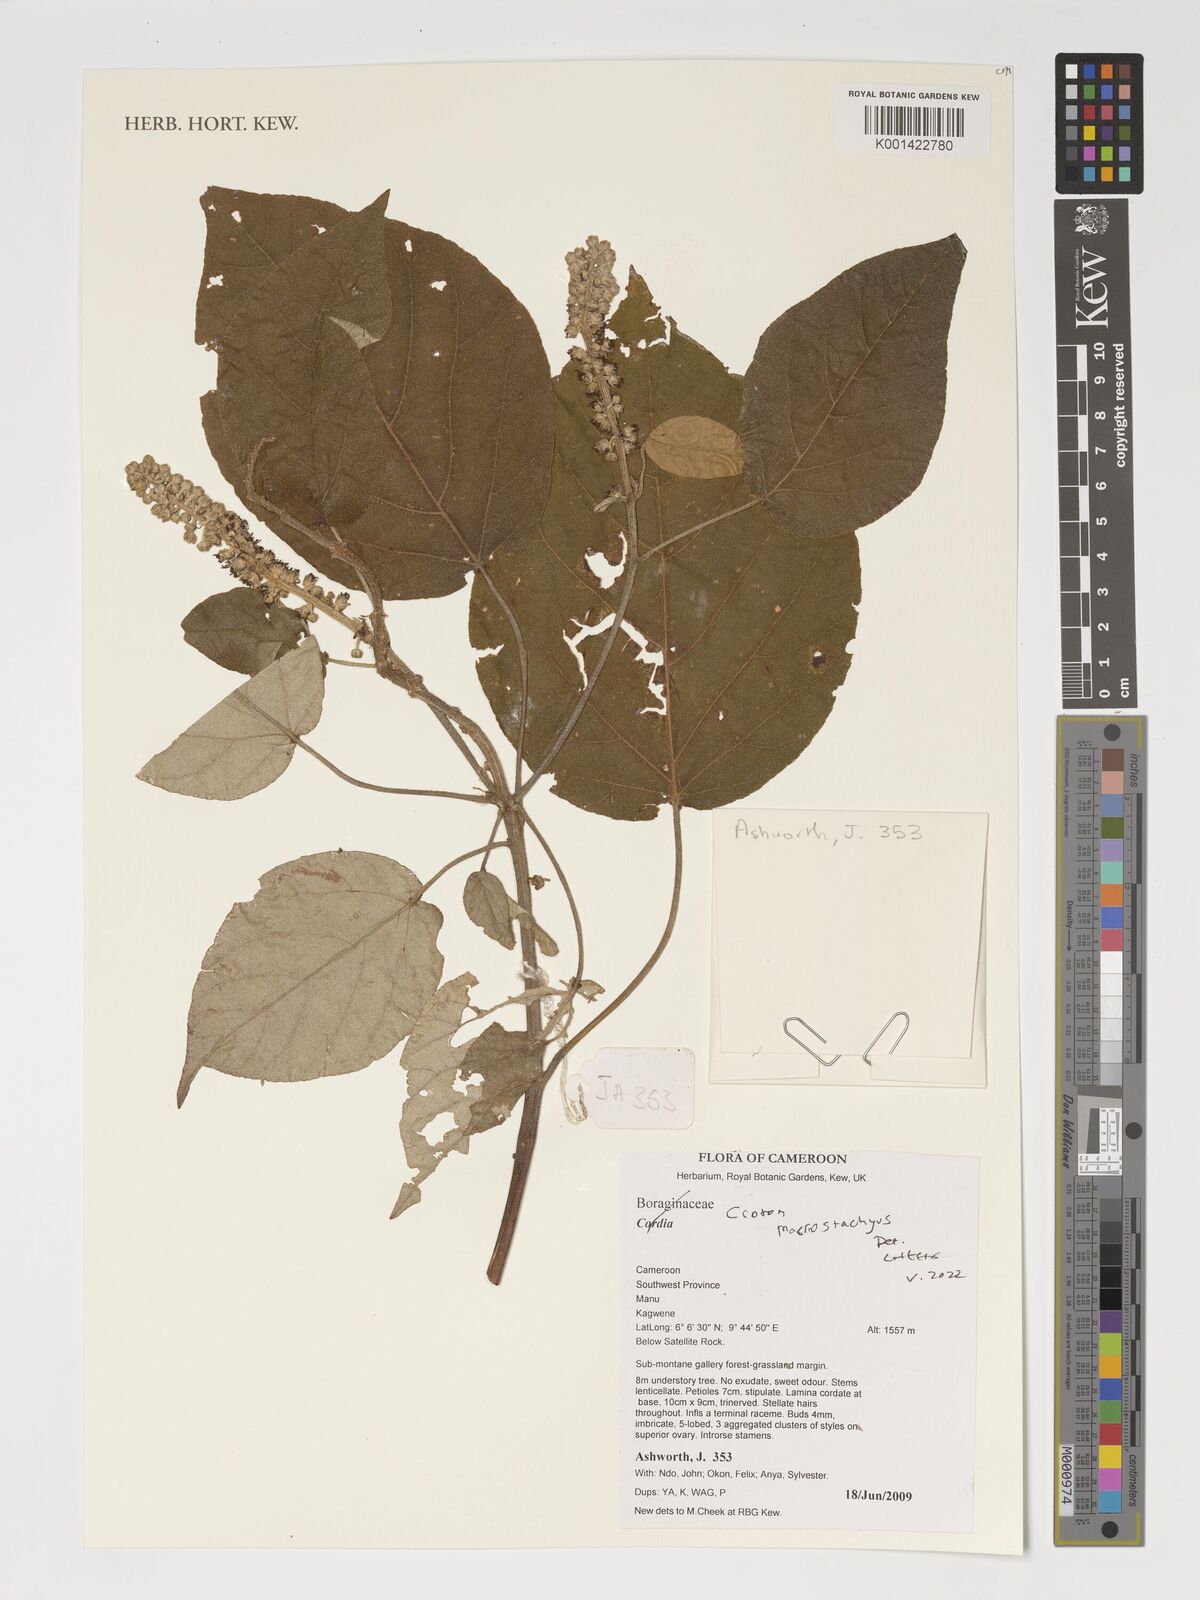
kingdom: Plantae
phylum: Tracheophyta
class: Magnoliopsida
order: Malpighiales
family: Euphorbiaceae
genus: Croton
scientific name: Croton macrostachyus
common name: Mutundu
